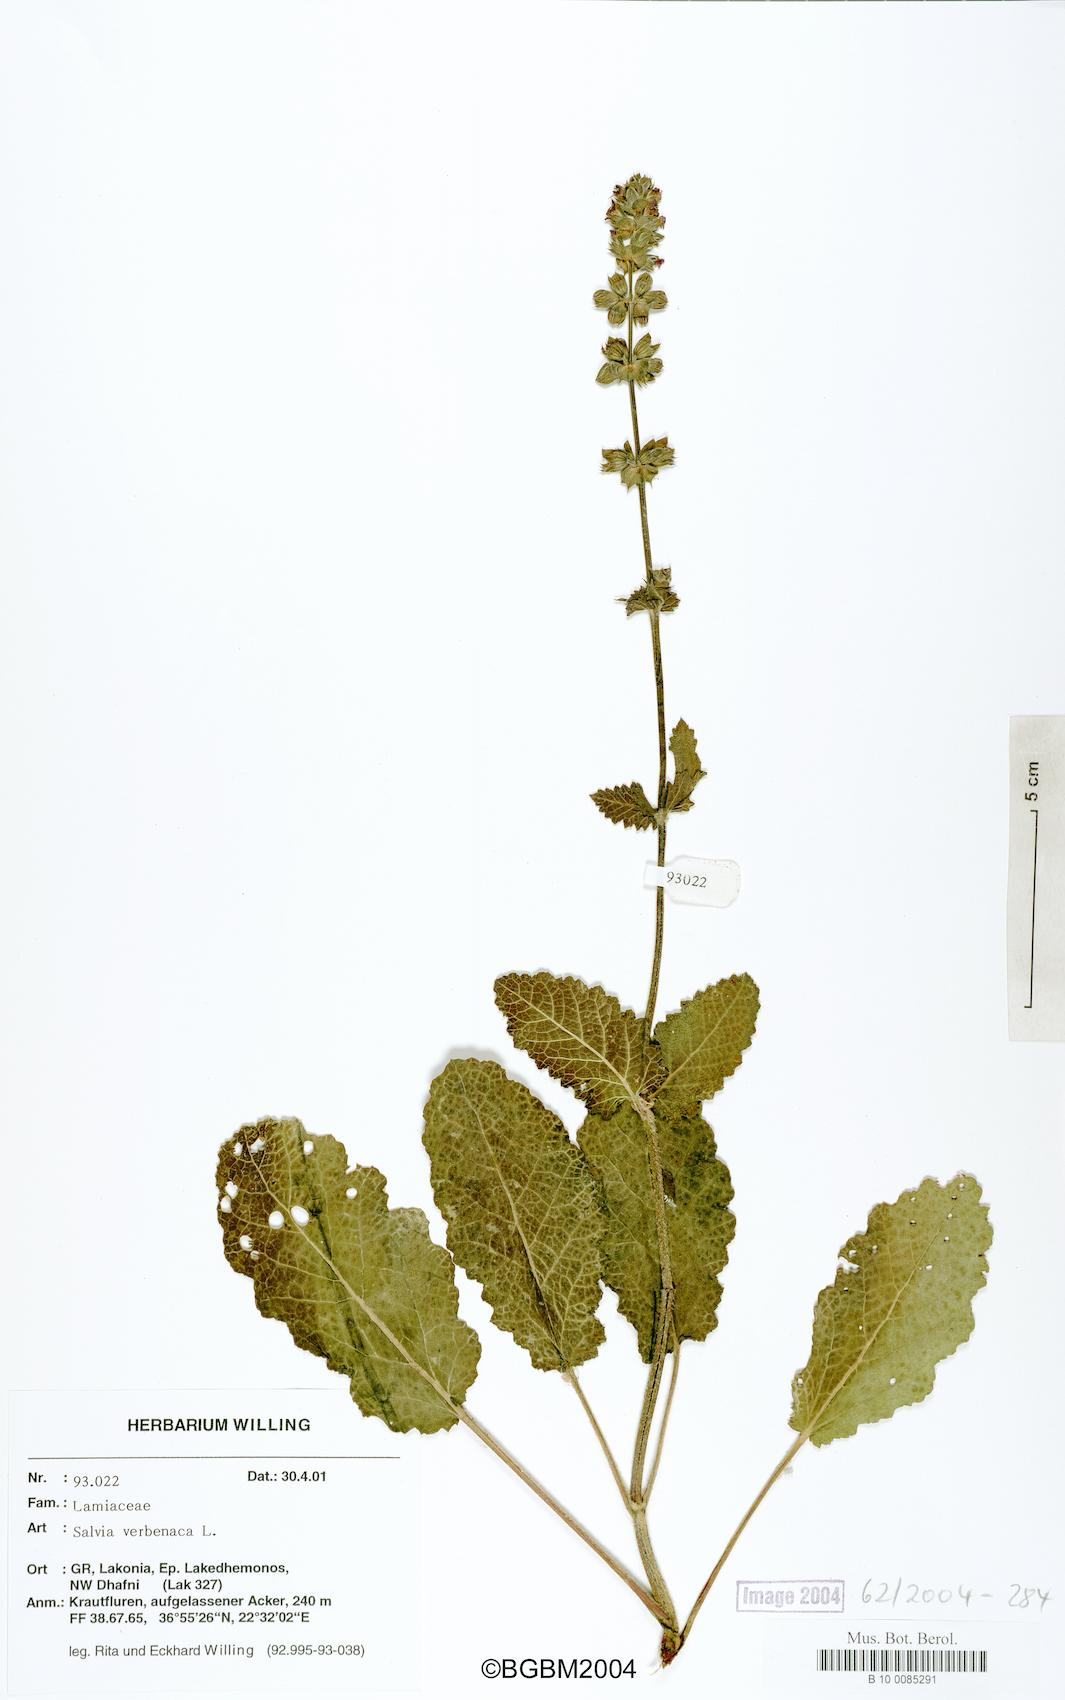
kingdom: Plantae
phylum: Tracheophyta
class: Magnoliopsida
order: Lamiales
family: Lamiaceae
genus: Salvia
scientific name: Salvia verbenaca
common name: Wild clary
